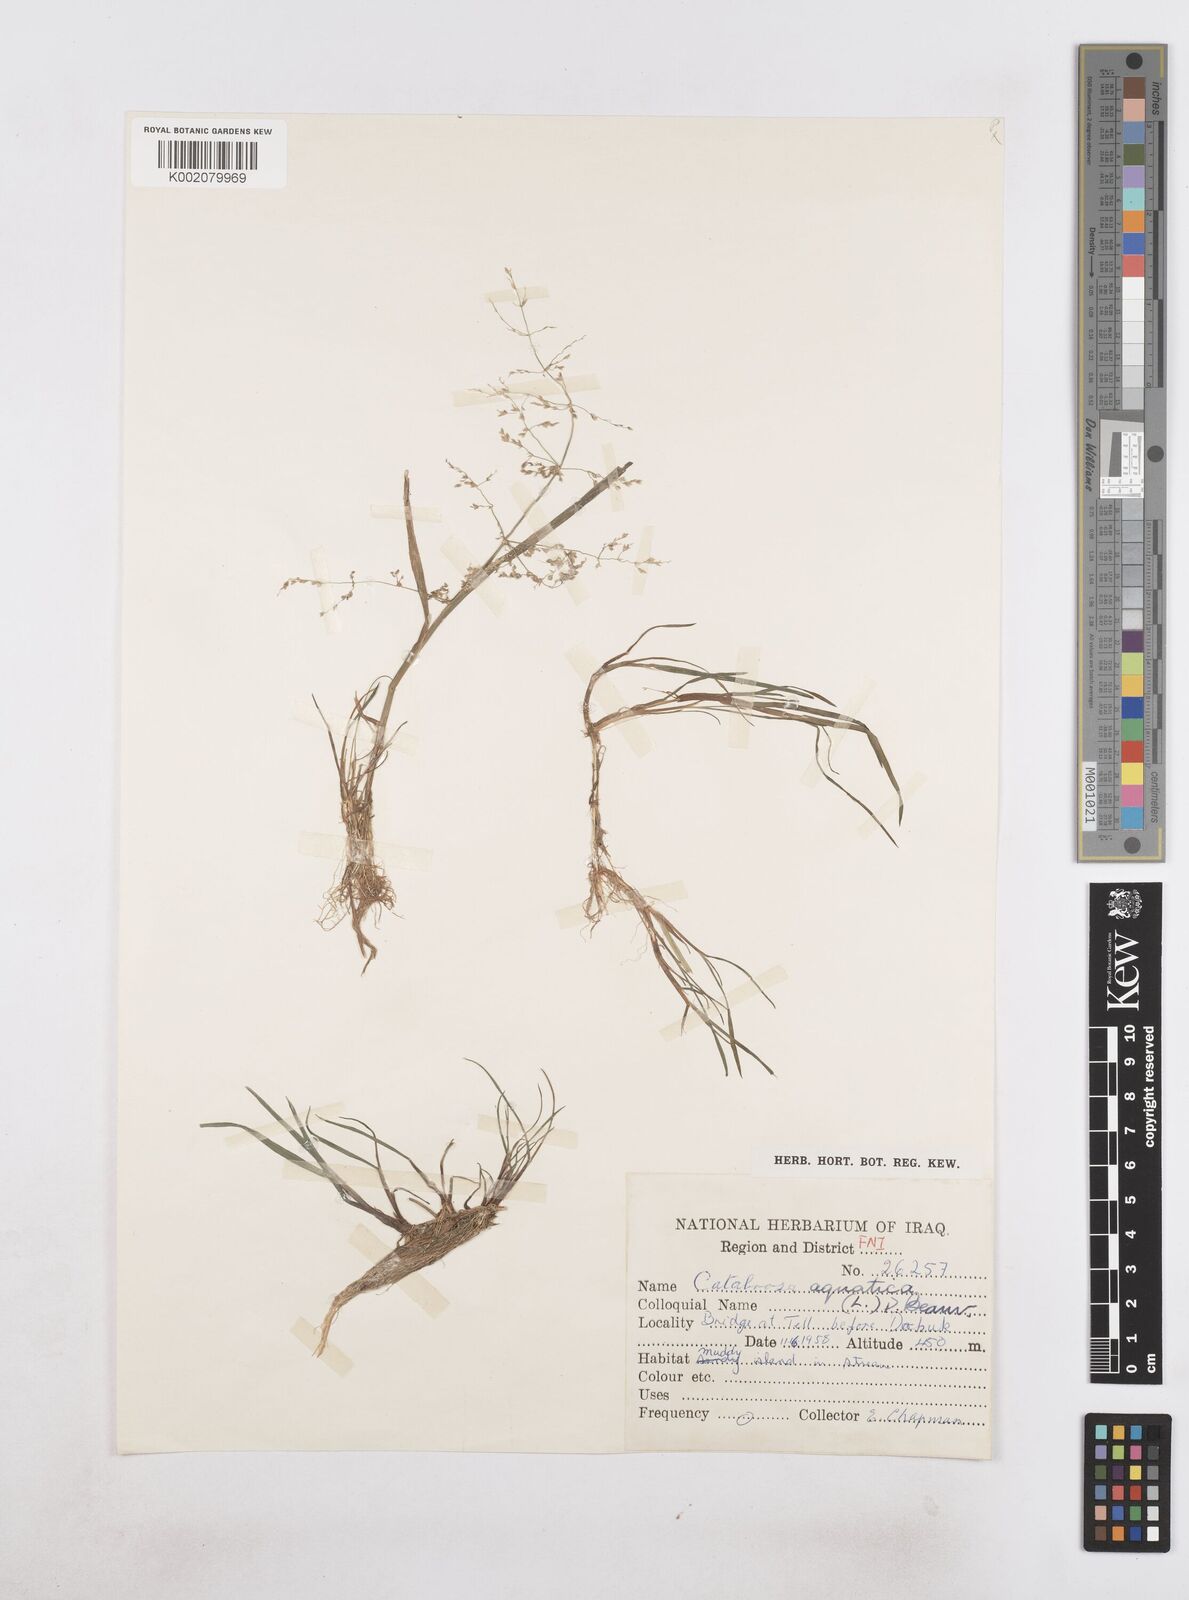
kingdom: Plantae
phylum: Tracheophyta
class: Liliopsida
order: Poales
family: Poaceae
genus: Catabrosa
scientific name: Catabrosa aquatica
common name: Whorl-grass
